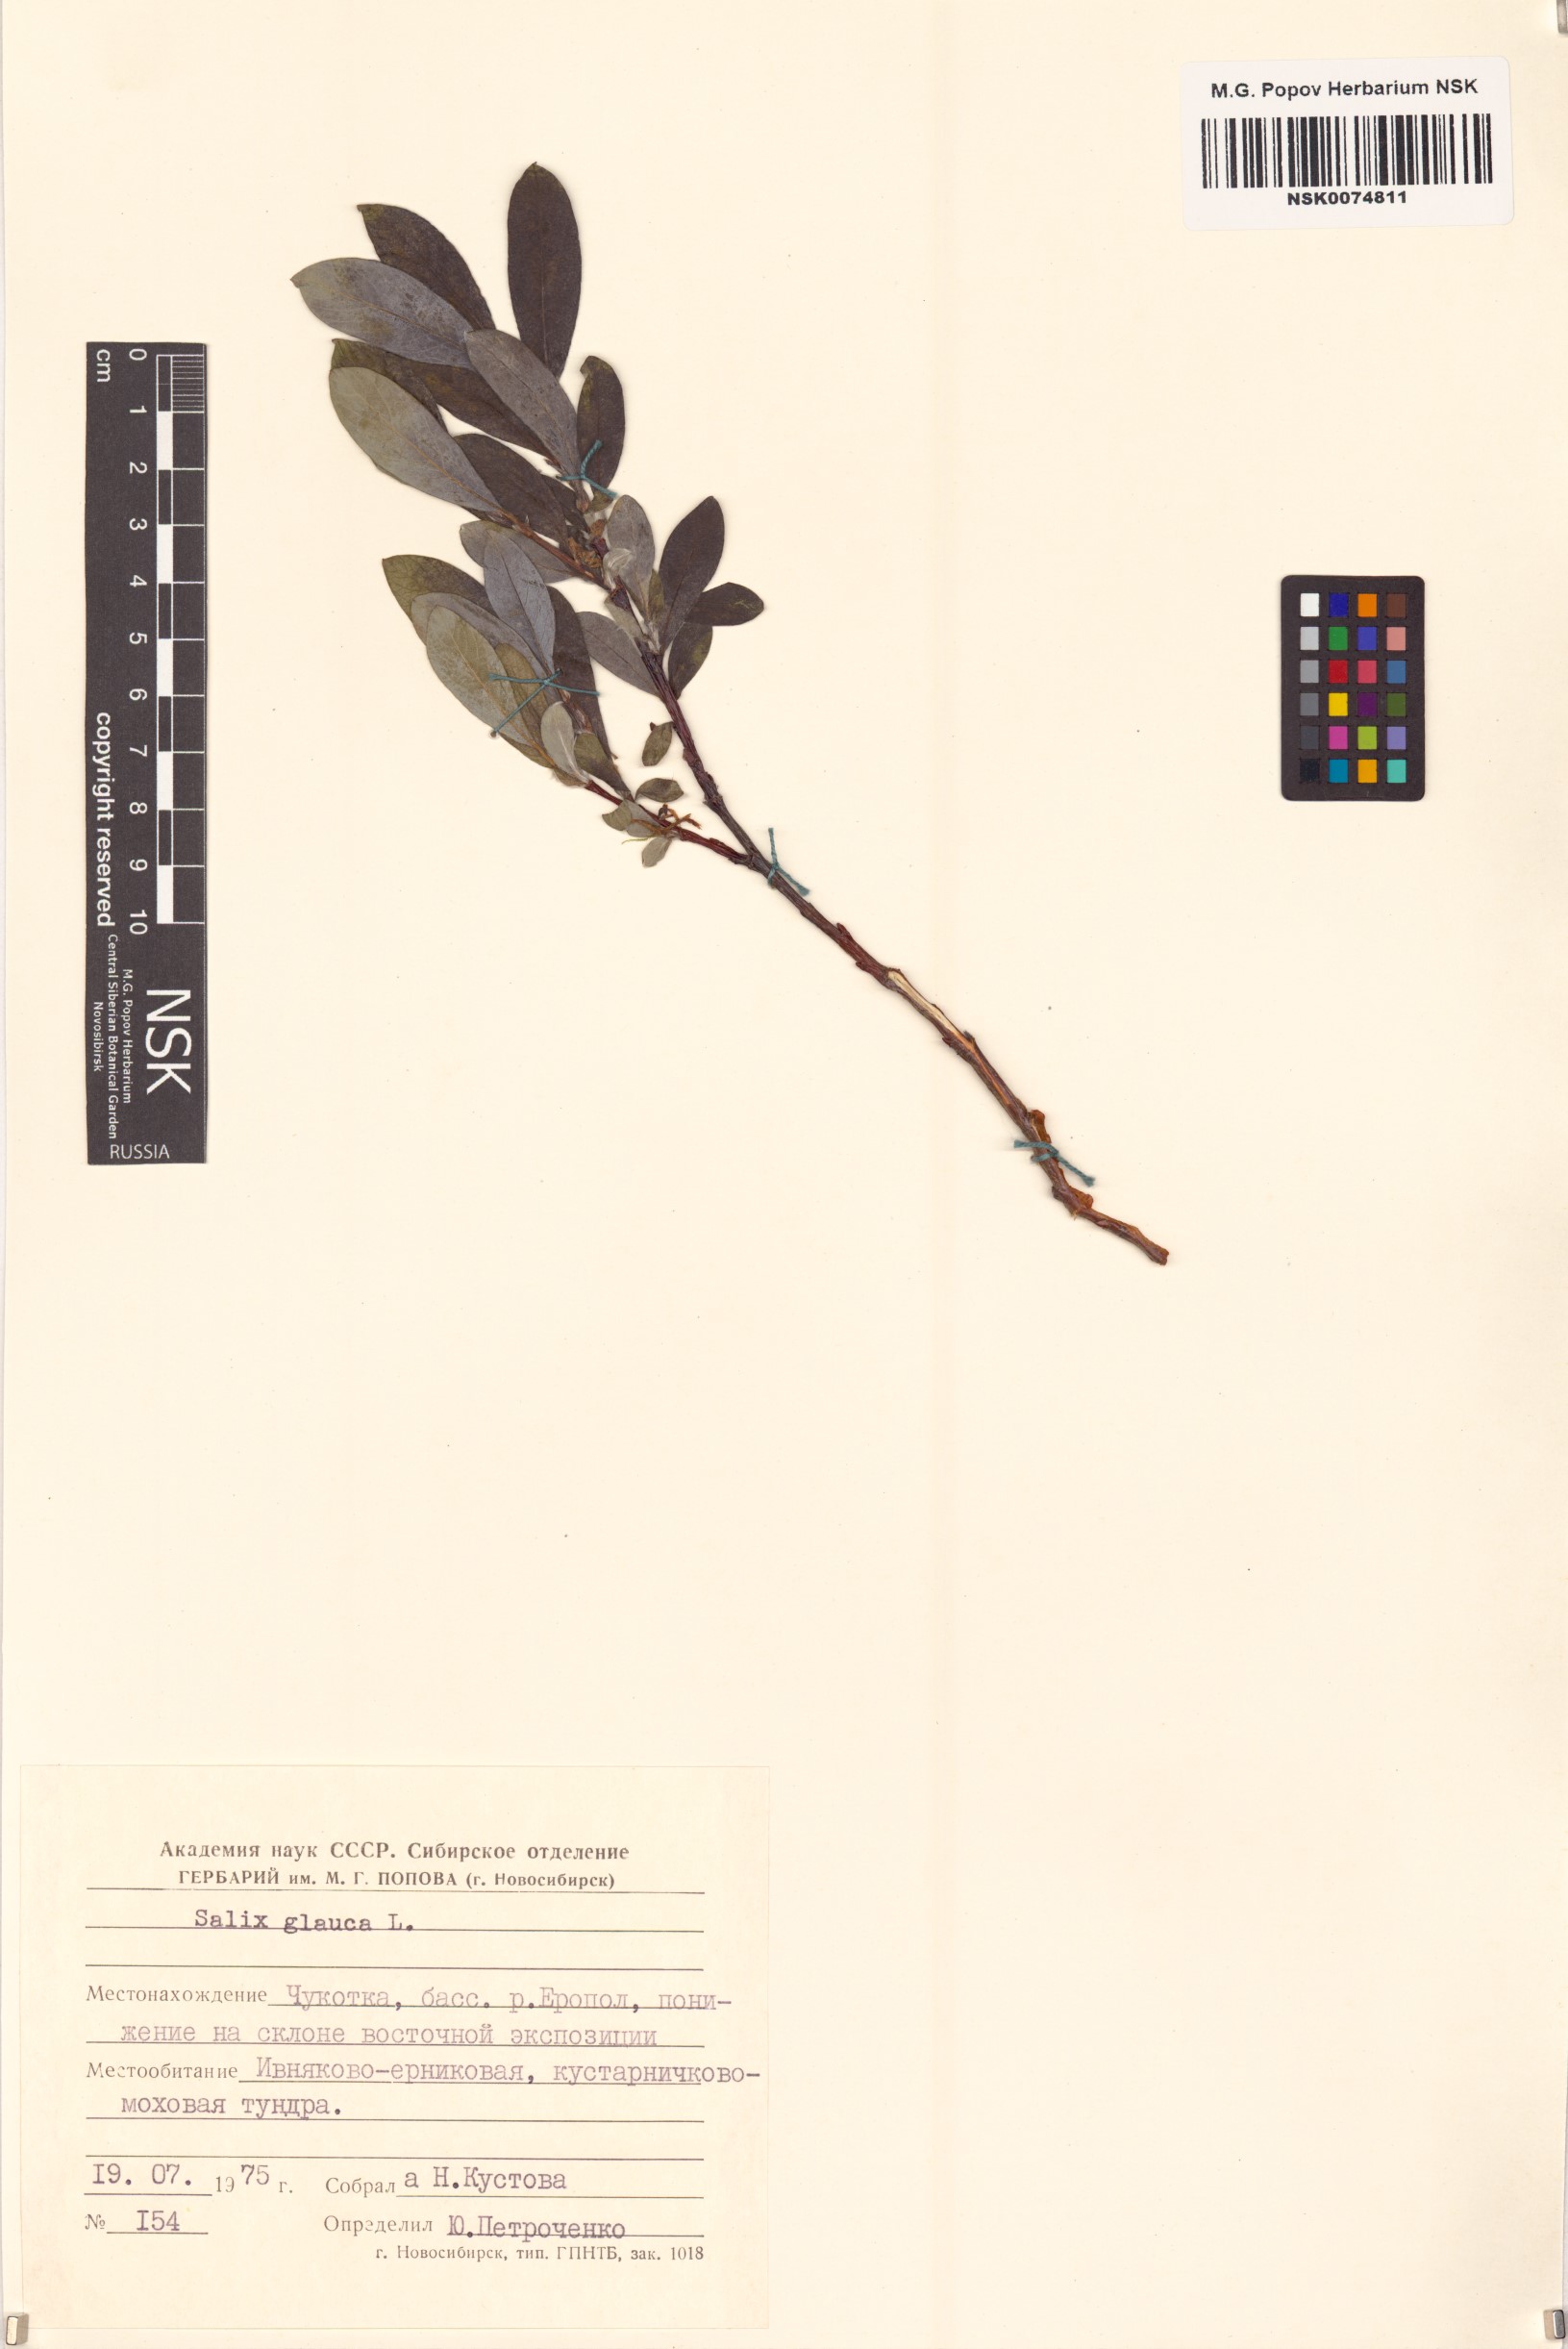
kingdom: Plantae
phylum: Tracheophyta
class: Magnoliopsida
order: Malpighiales
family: Salicaceae
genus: Salix
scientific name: Salix glauca
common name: Glaucous willow
